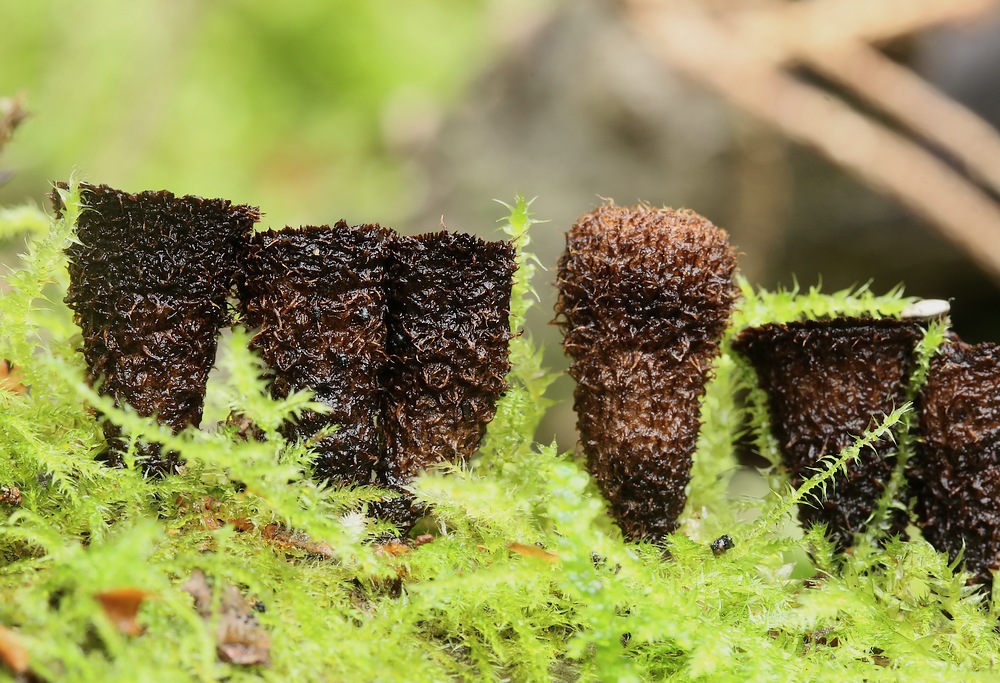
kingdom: Fungi
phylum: Basidiomycota
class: Agaricomycetes
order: Agaricales
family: Agaricaceae
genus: Cyathus
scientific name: Cyathus striatus
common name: stribet redesvamp
